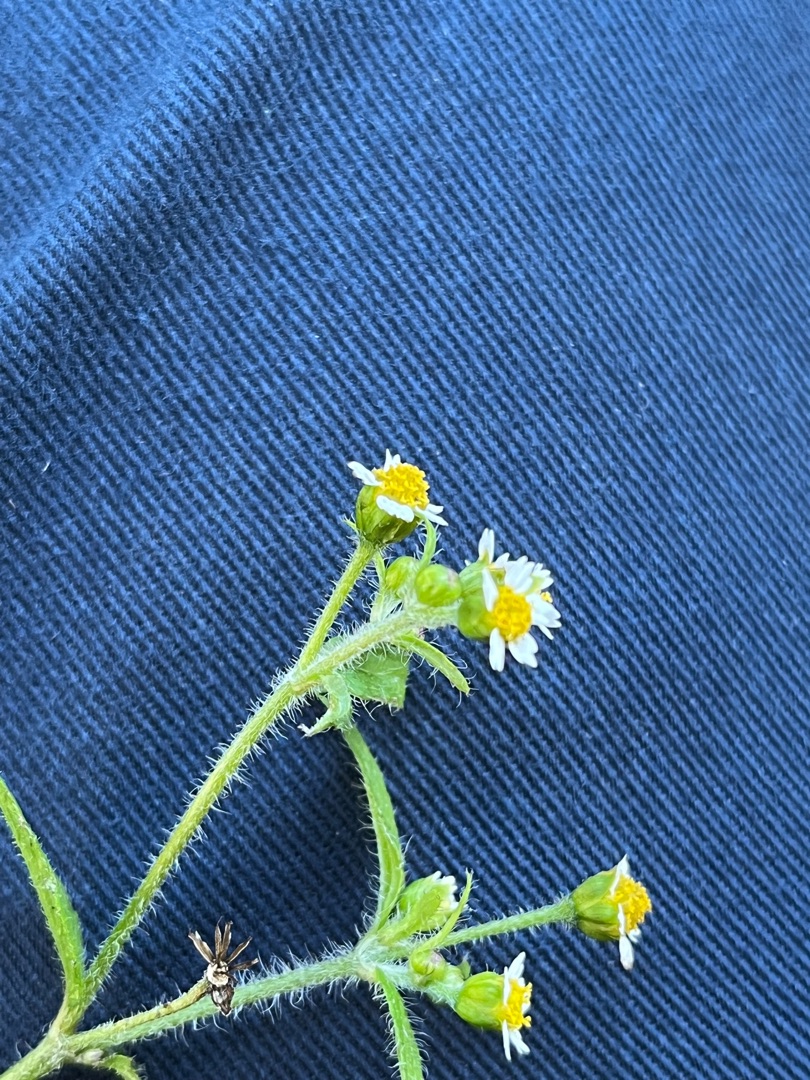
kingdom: Plantae
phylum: Tracheophyta
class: Magnoliopsida
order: Asterales
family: Asteraceae
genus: Galinsoga
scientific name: Galinsoga quadriradiata
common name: Kirtel-kortstråle
